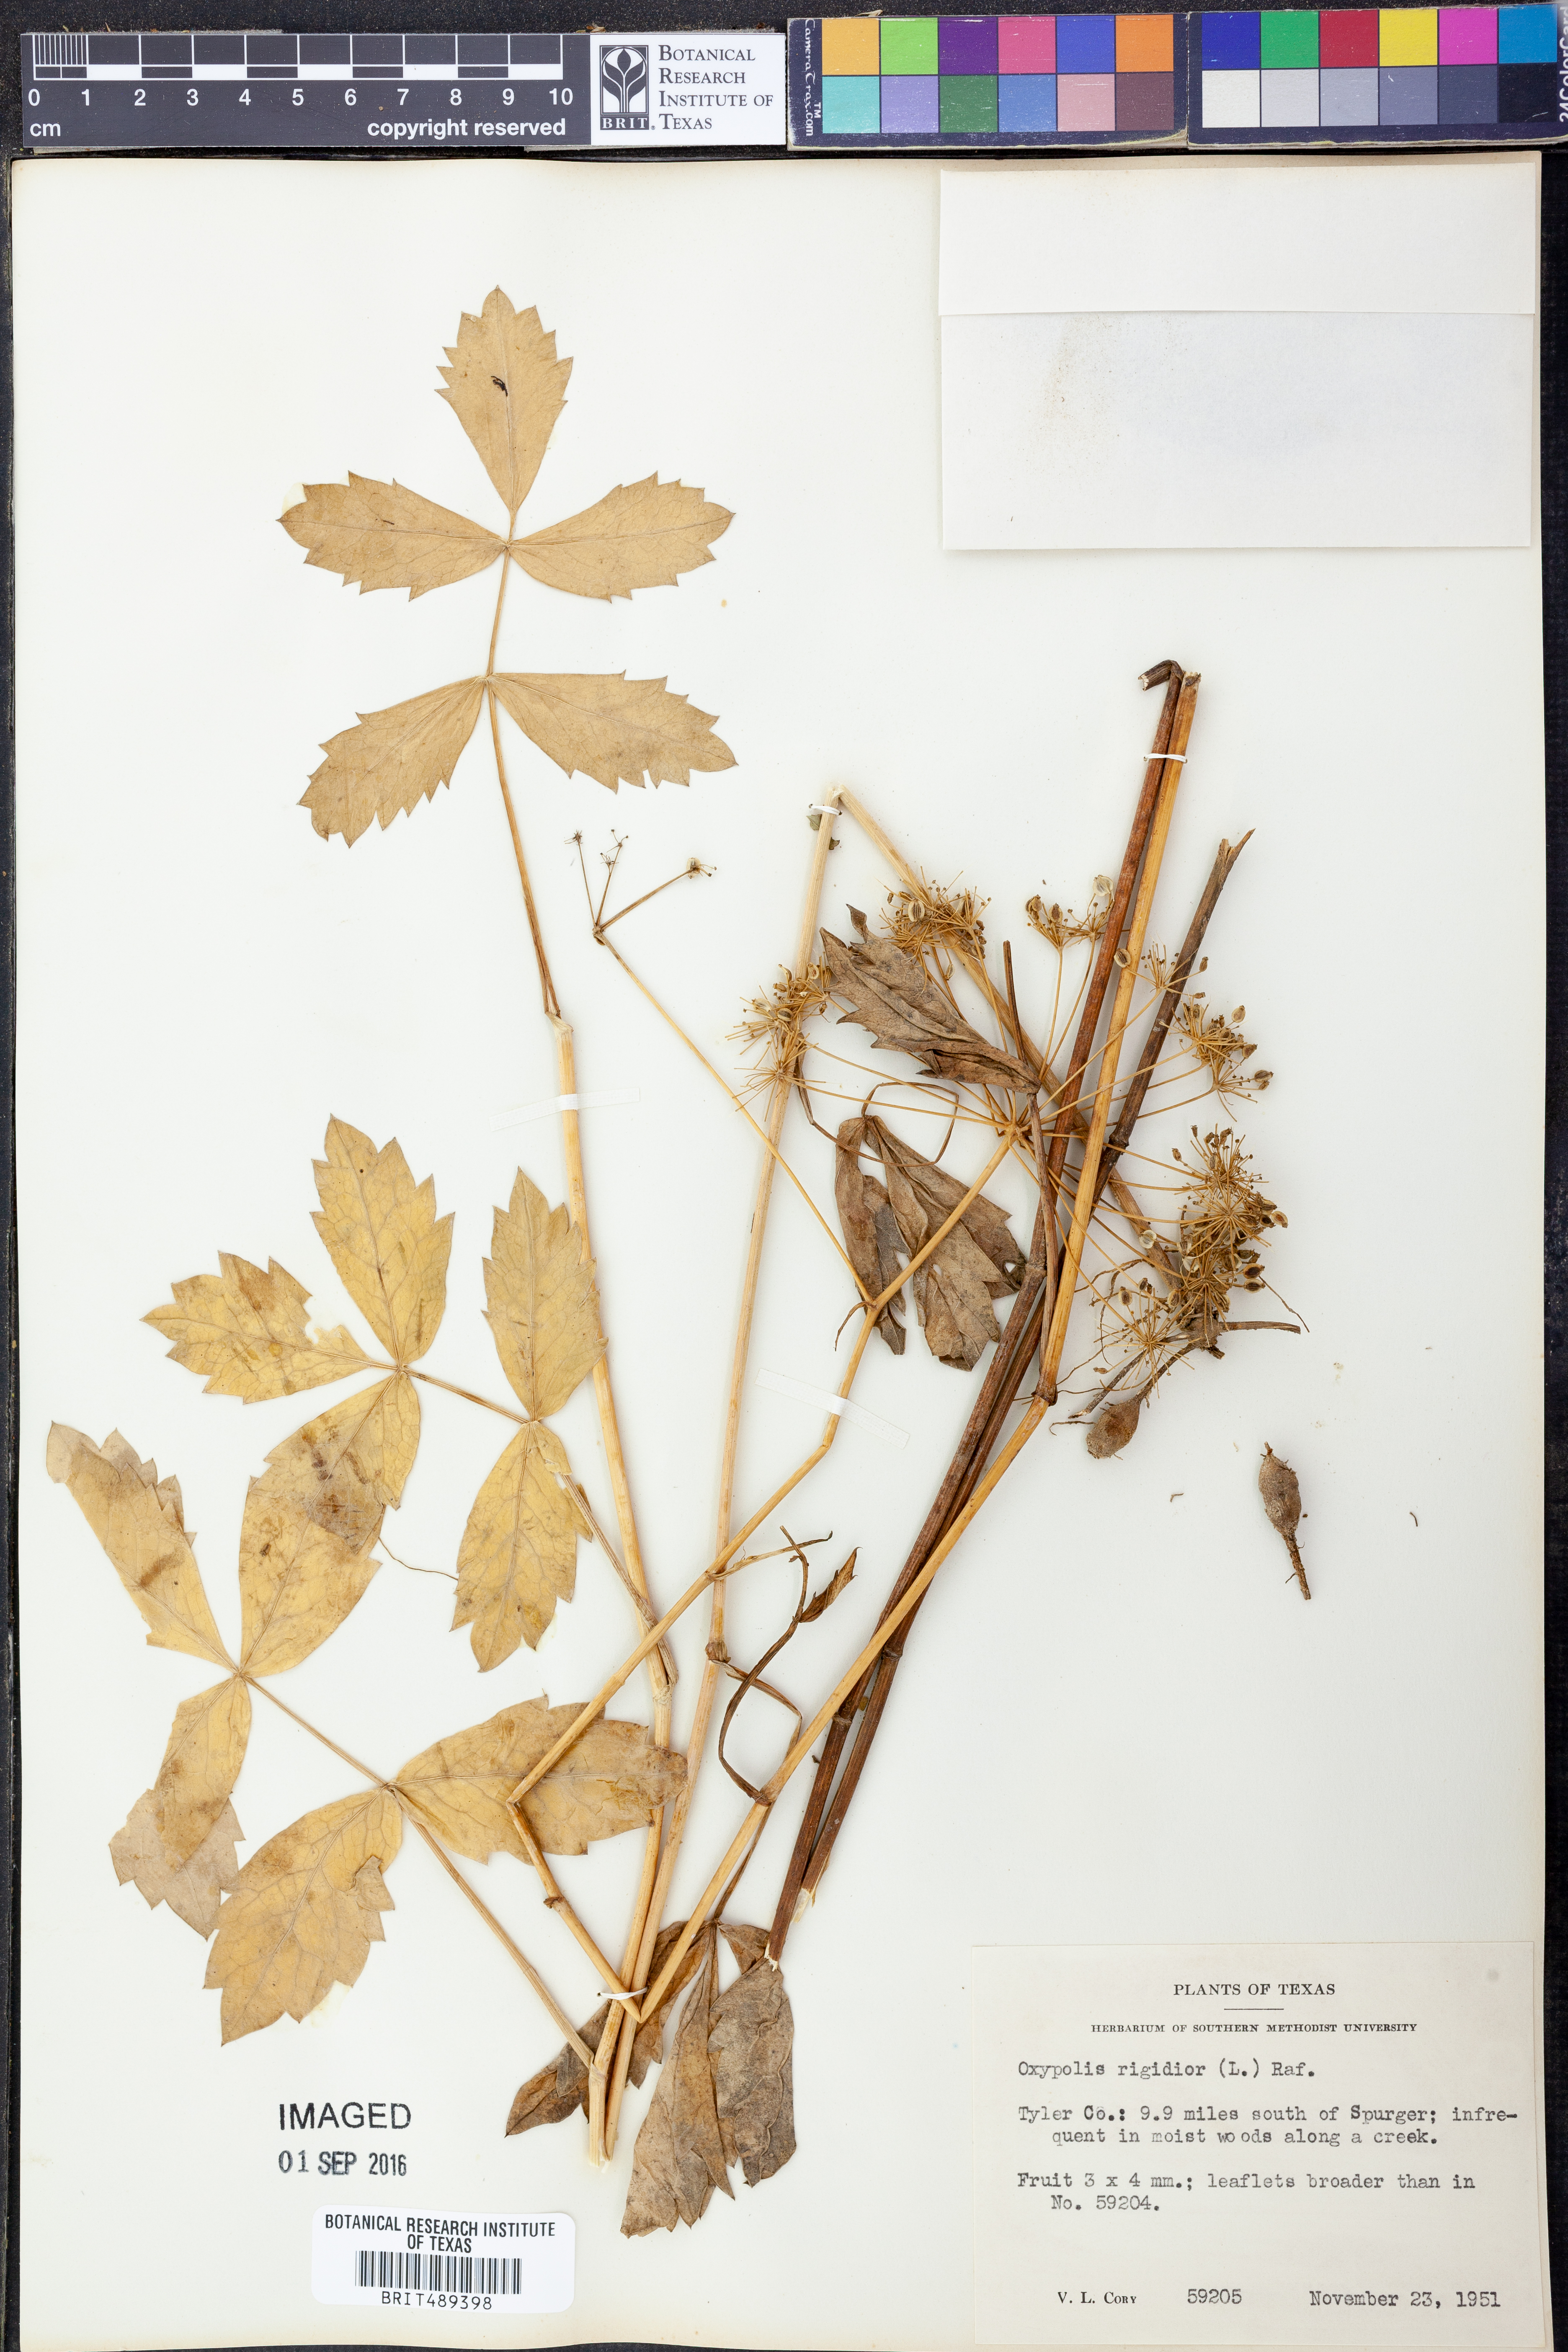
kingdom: Plantae
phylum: Tracheophyta
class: Magnoliopsida
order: Apiales
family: Apiaceae
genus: Oxypolis
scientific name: Oxypolis rigidior
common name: Cowbane
